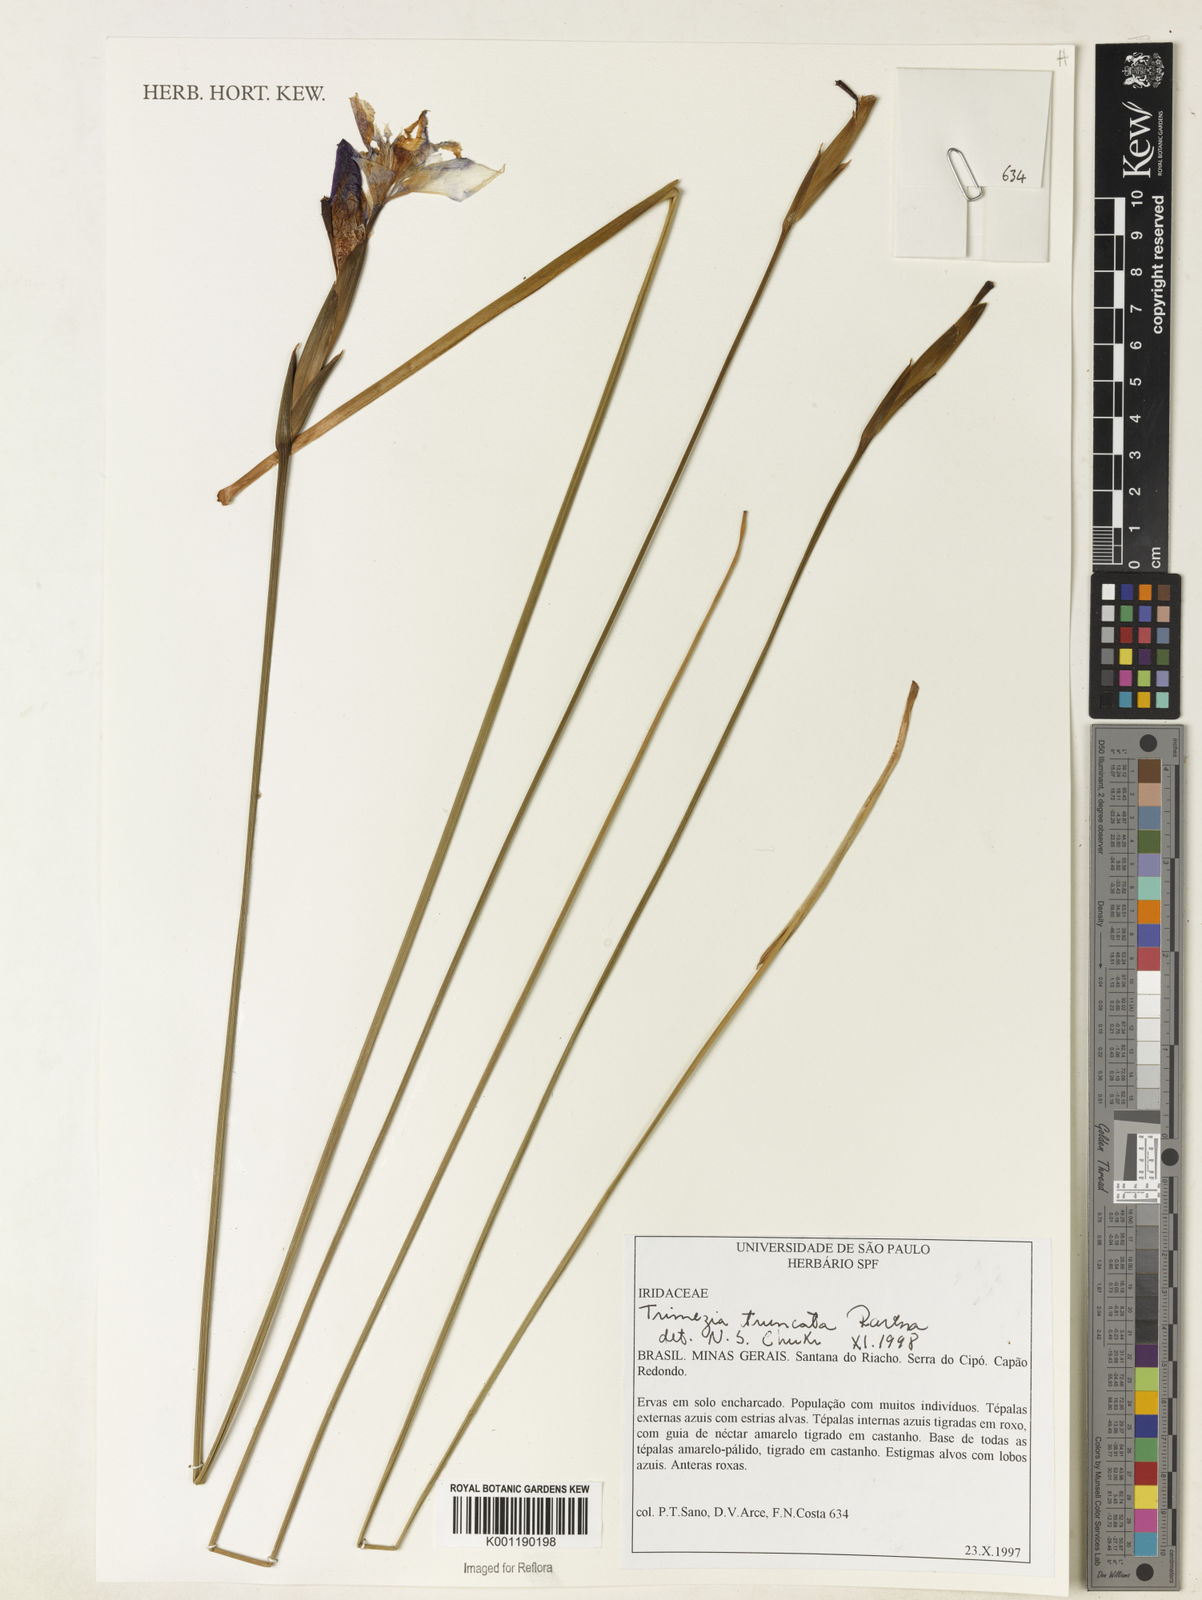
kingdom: Plantae
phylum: Tracheophyta
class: Liliopsida
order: Asparagales
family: Iridaceae
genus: Trimezia
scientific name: Trimezia truncata
